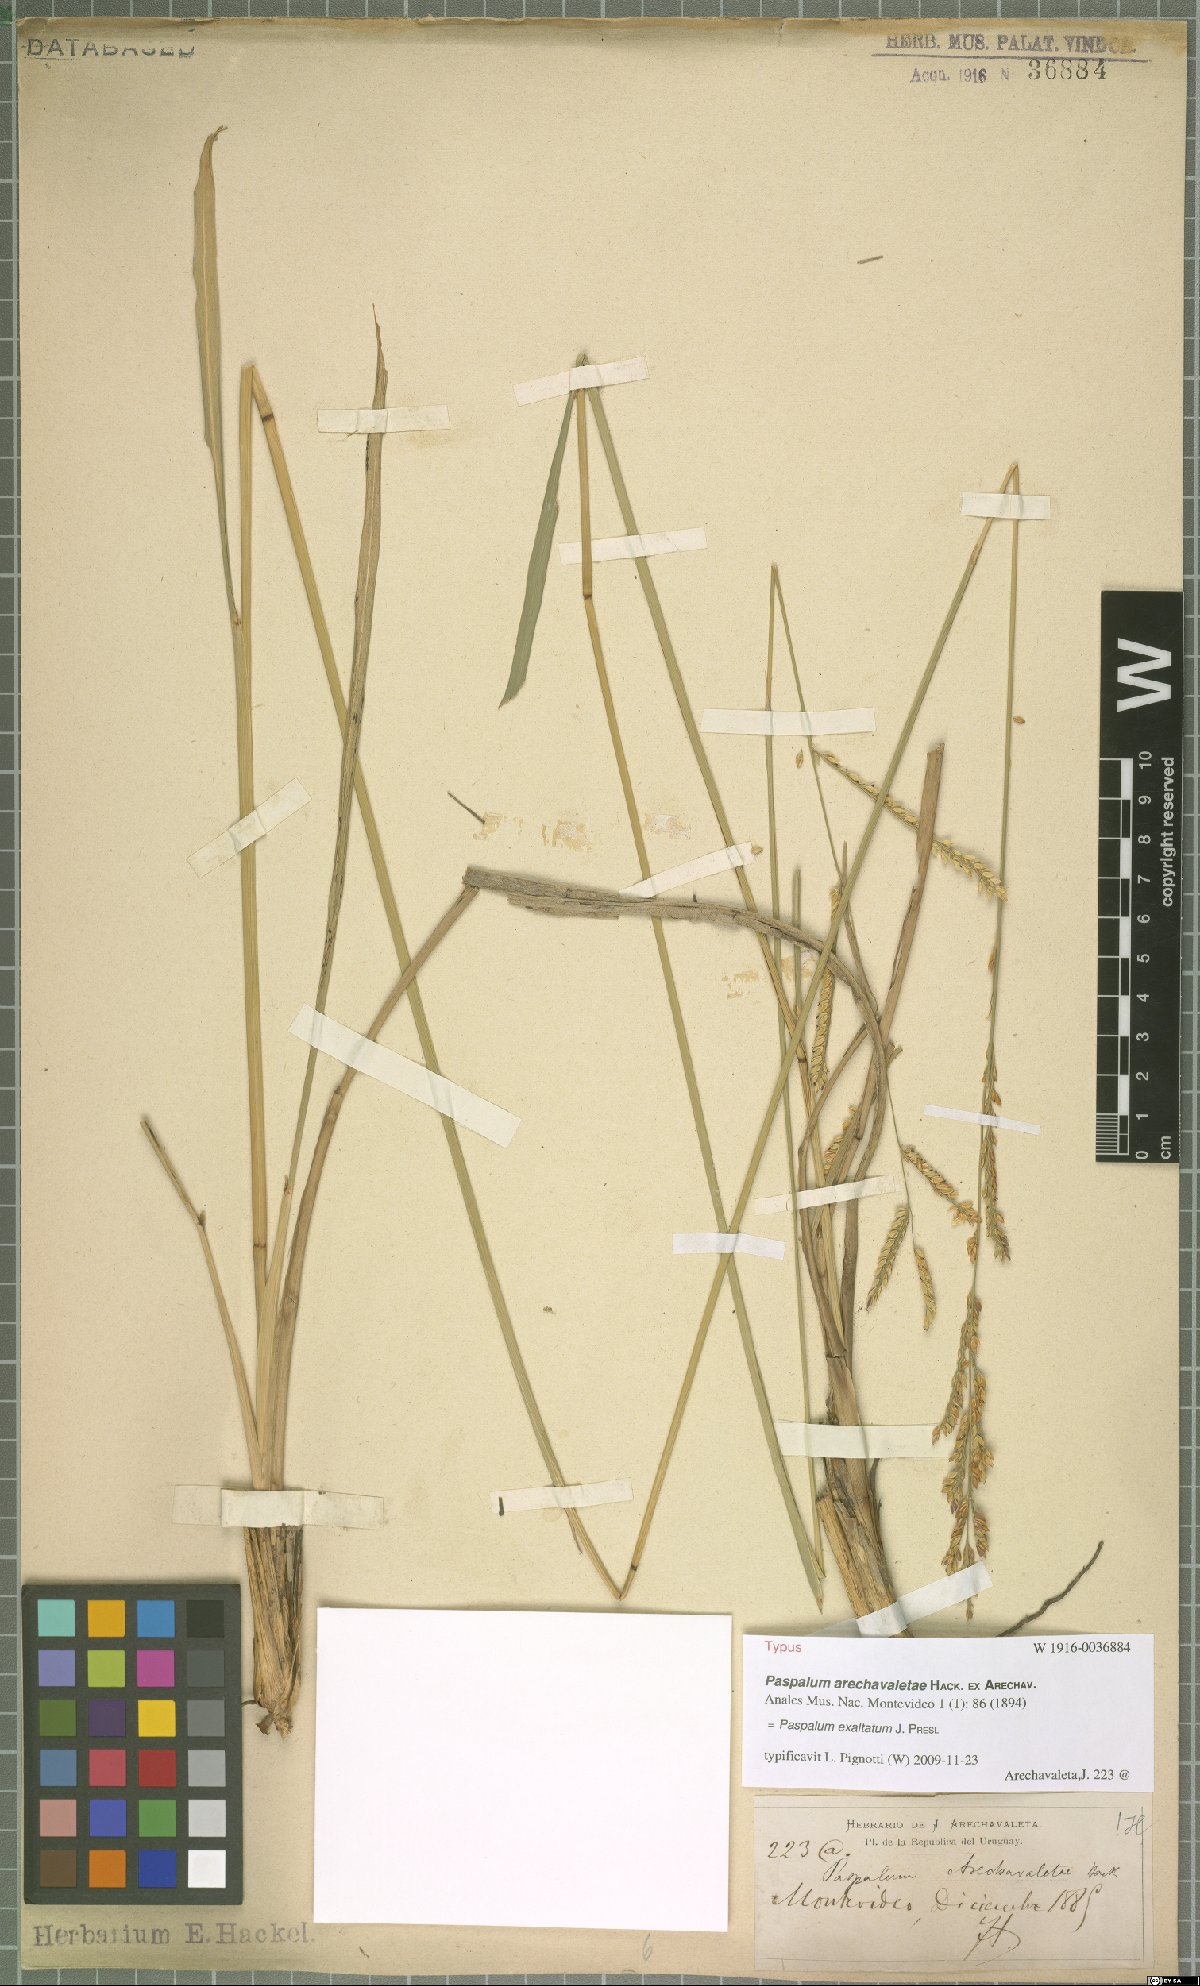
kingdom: Plantae
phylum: Tracheophyta
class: Liliopsida
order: Poales
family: Poaceae
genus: Paspalum
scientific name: Paspalum exaltatum
